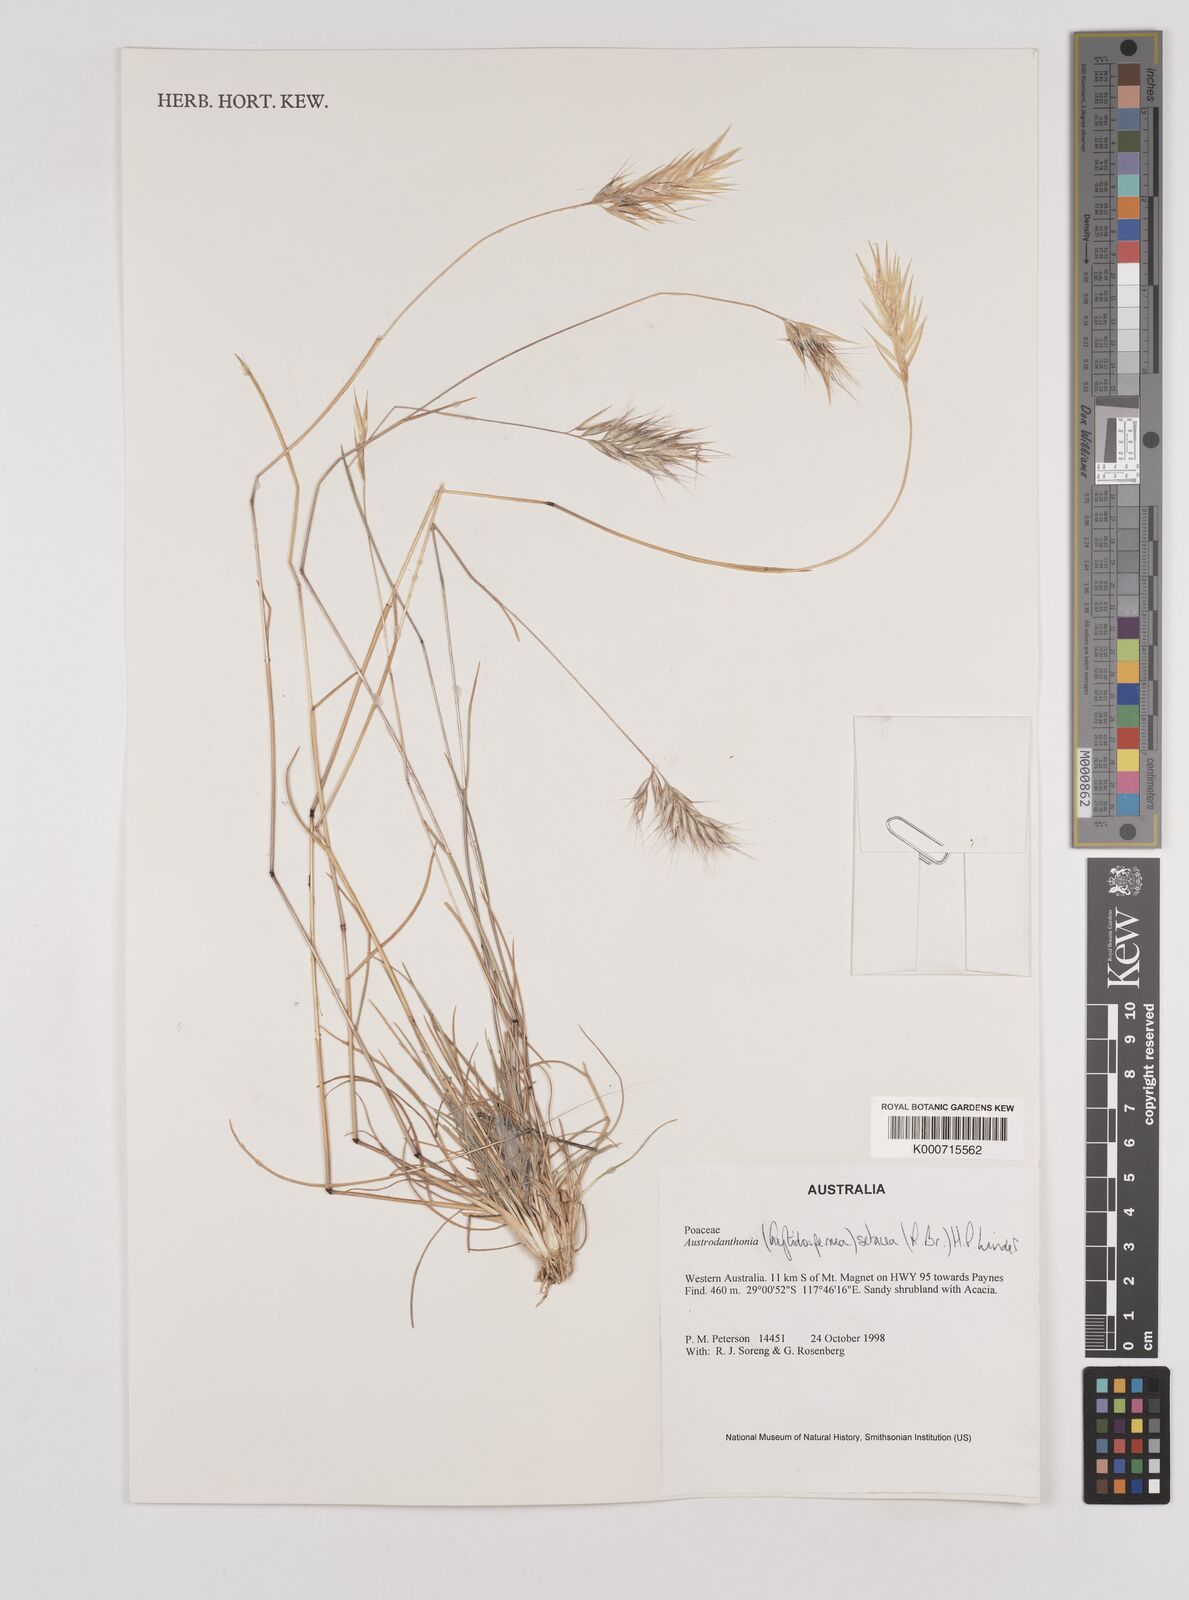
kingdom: Plantae
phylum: Tracheophyta
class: Liliopsida
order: Poales
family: Poaceae
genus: Rytidosperma
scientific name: Rytidosperma setaceum
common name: Small-flower wallaby grass
